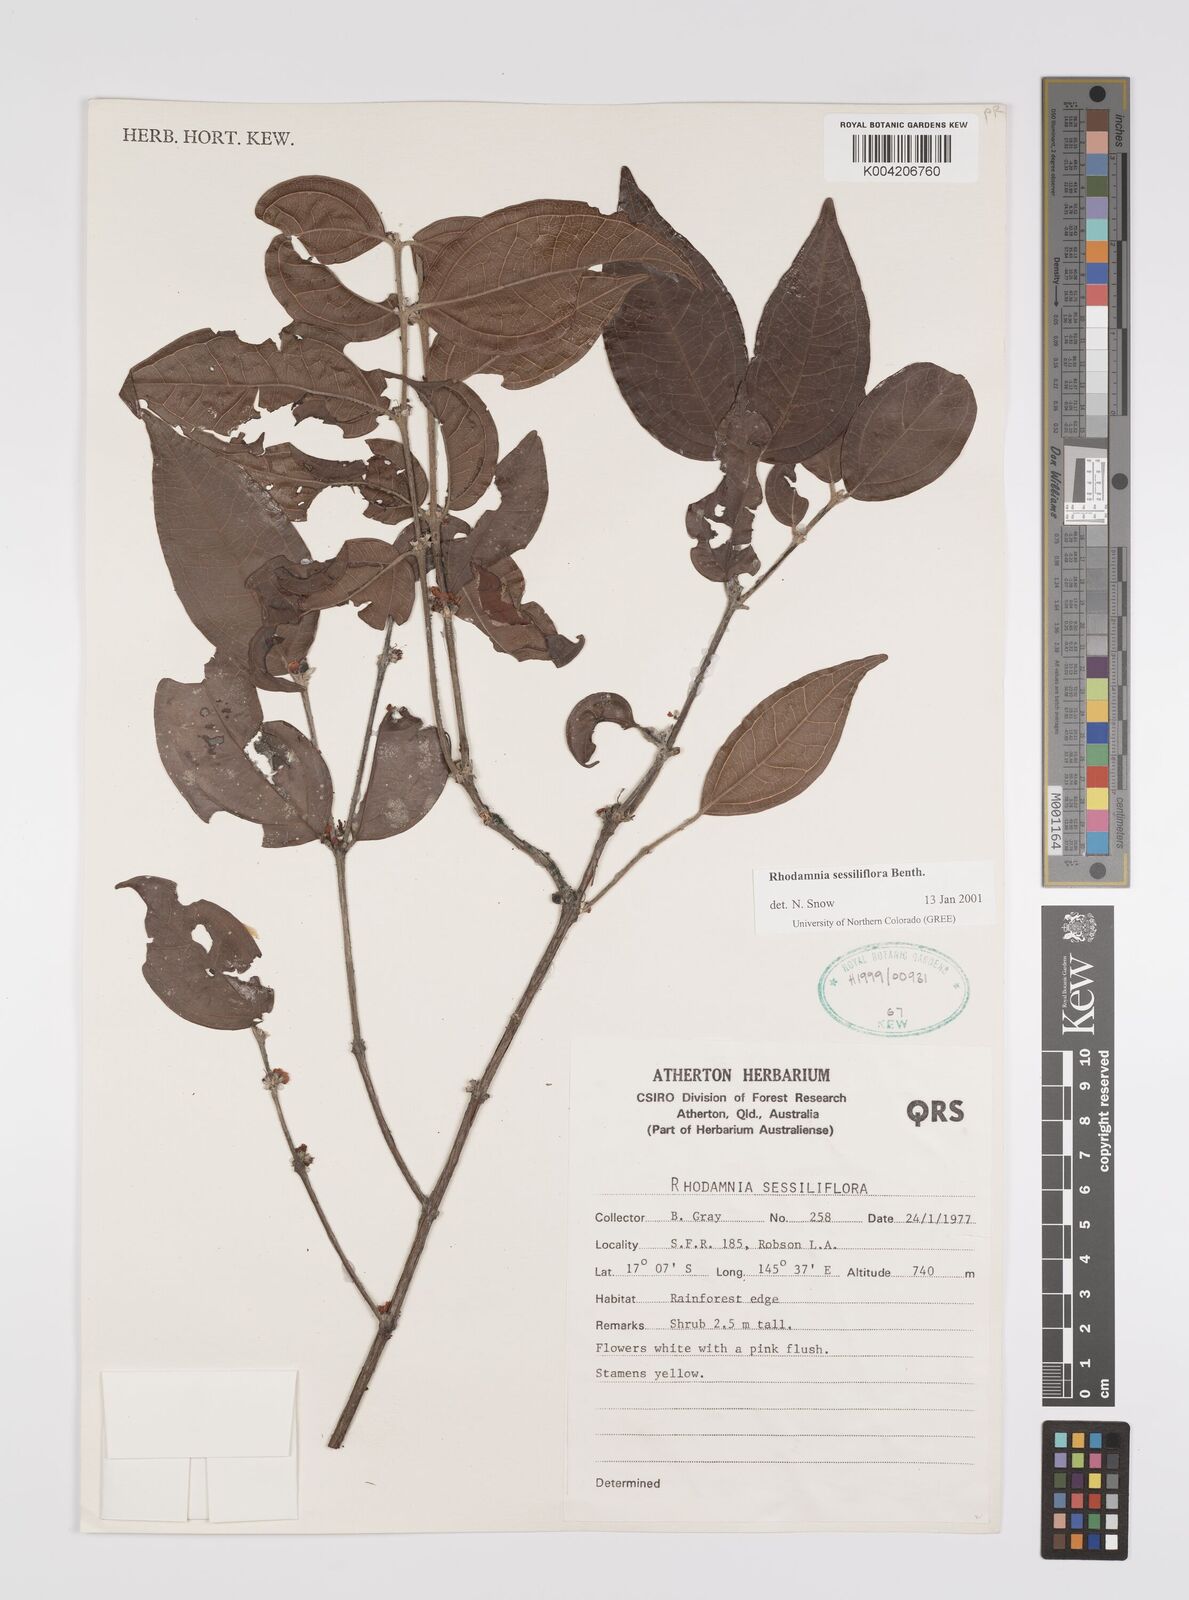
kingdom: Plantae
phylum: Tracheophyta
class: Magnoliopsida
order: Myrtales
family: Myrtaceae
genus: Rhodamnia
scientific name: Rhodamnia sessiliflora
